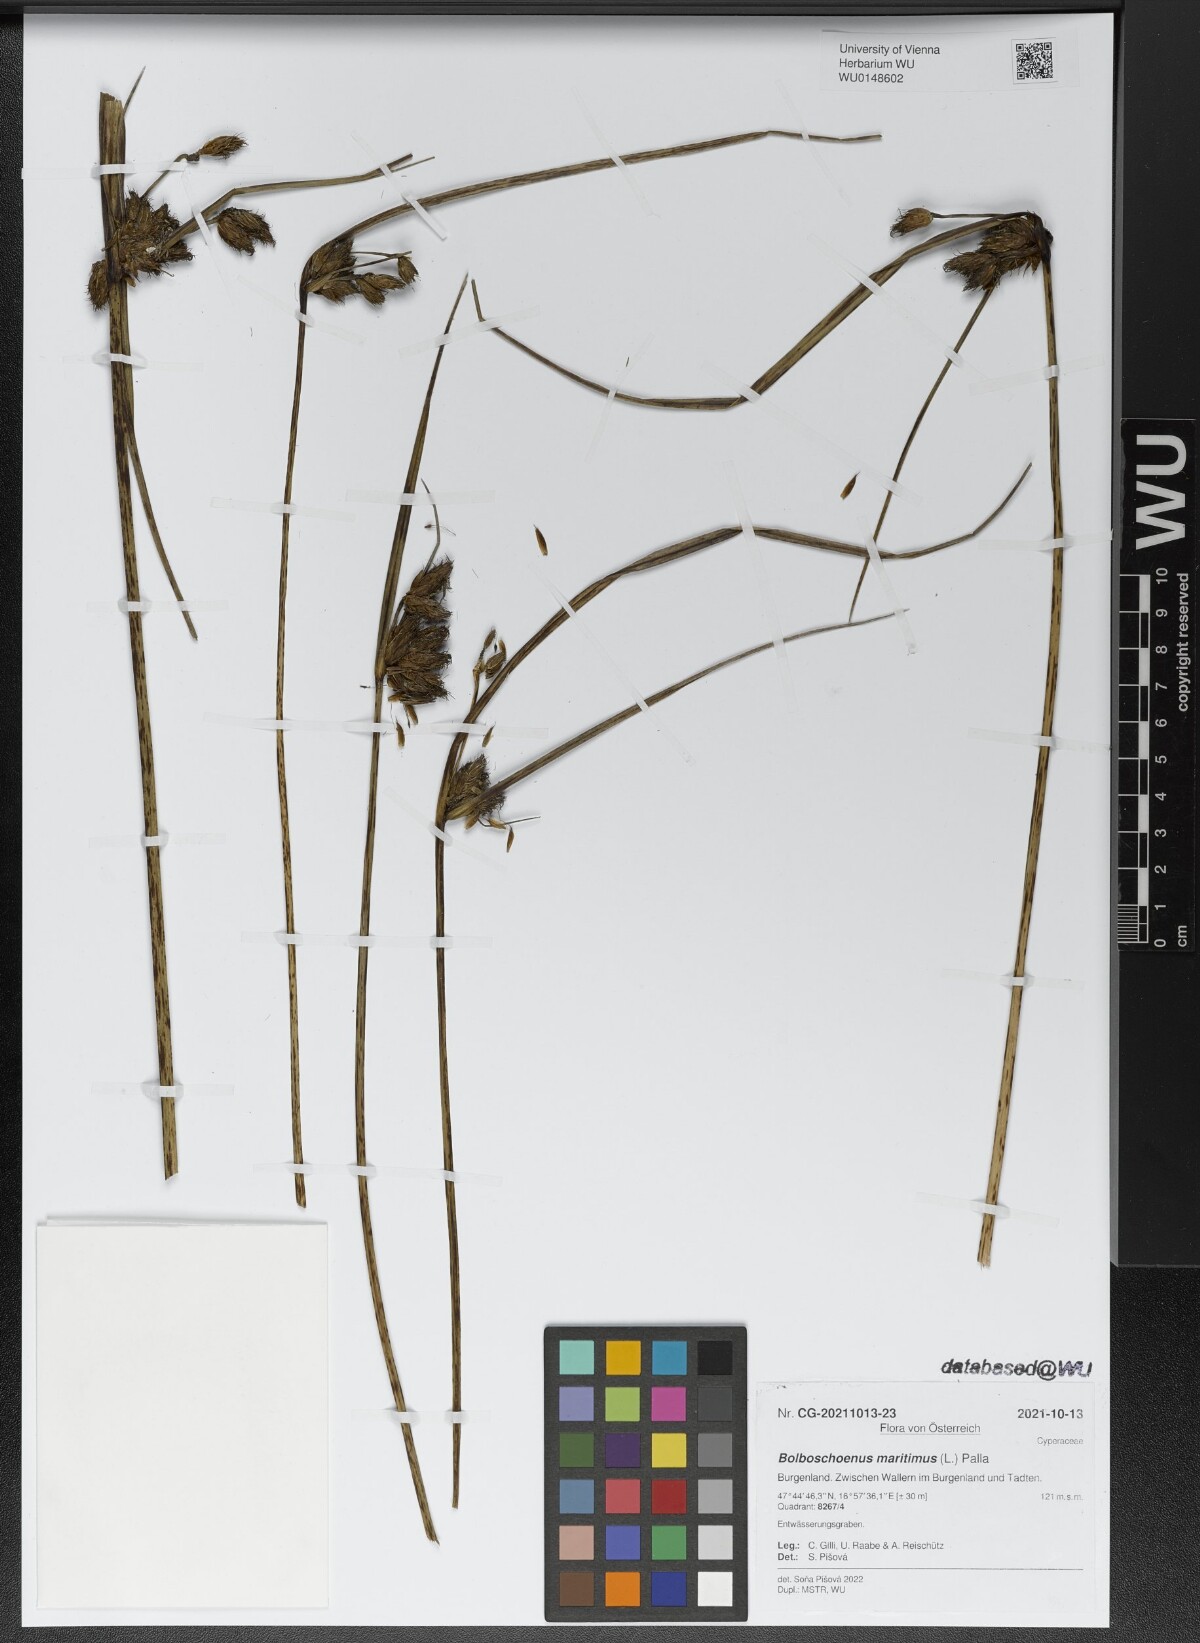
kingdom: Plantae
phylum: Tracheophyta
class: Liliopsida
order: Poales
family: Cyperaceae
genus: Bolboschoenus
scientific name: Bolboschoenus maritimus
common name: Sea club-rush
